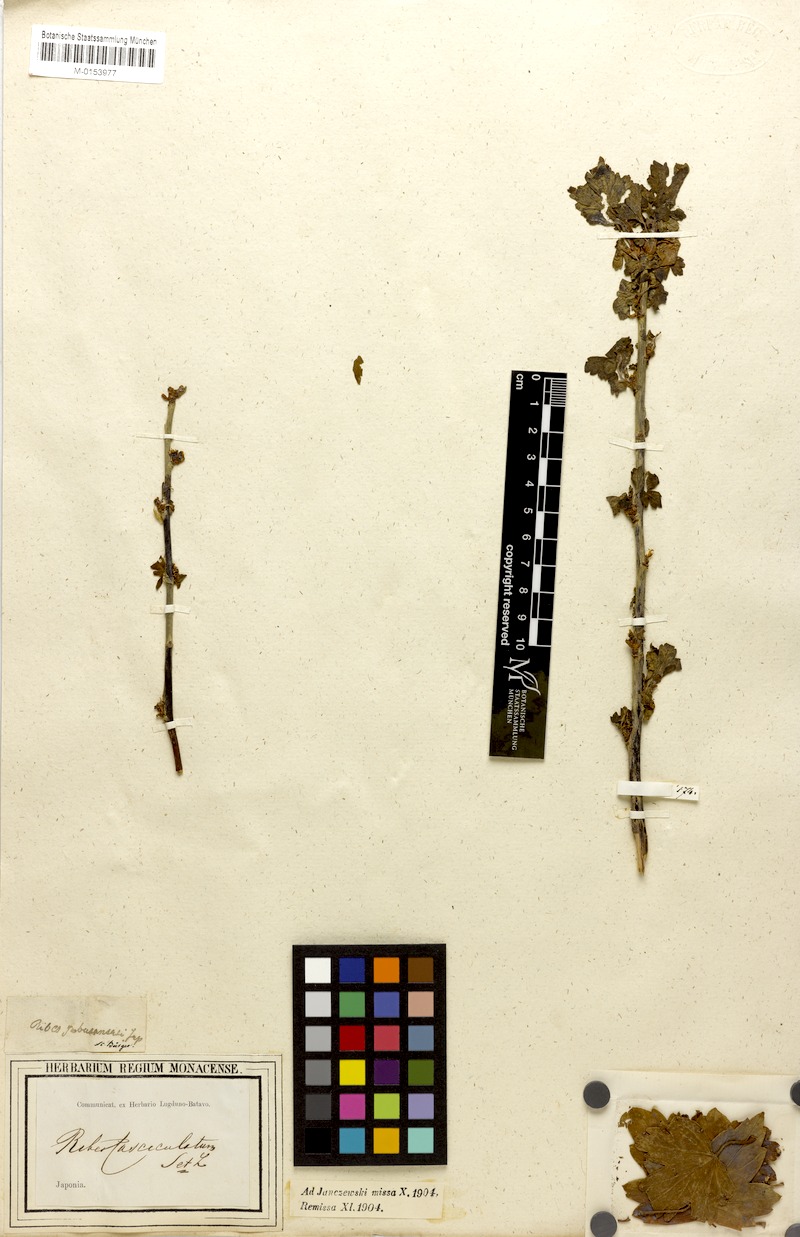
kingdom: Plantae
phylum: Tracheophyta
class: Magnoliopsida
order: Saxifragales
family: Grossulariaceae
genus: Ribes
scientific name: Ribes fasciculatum
